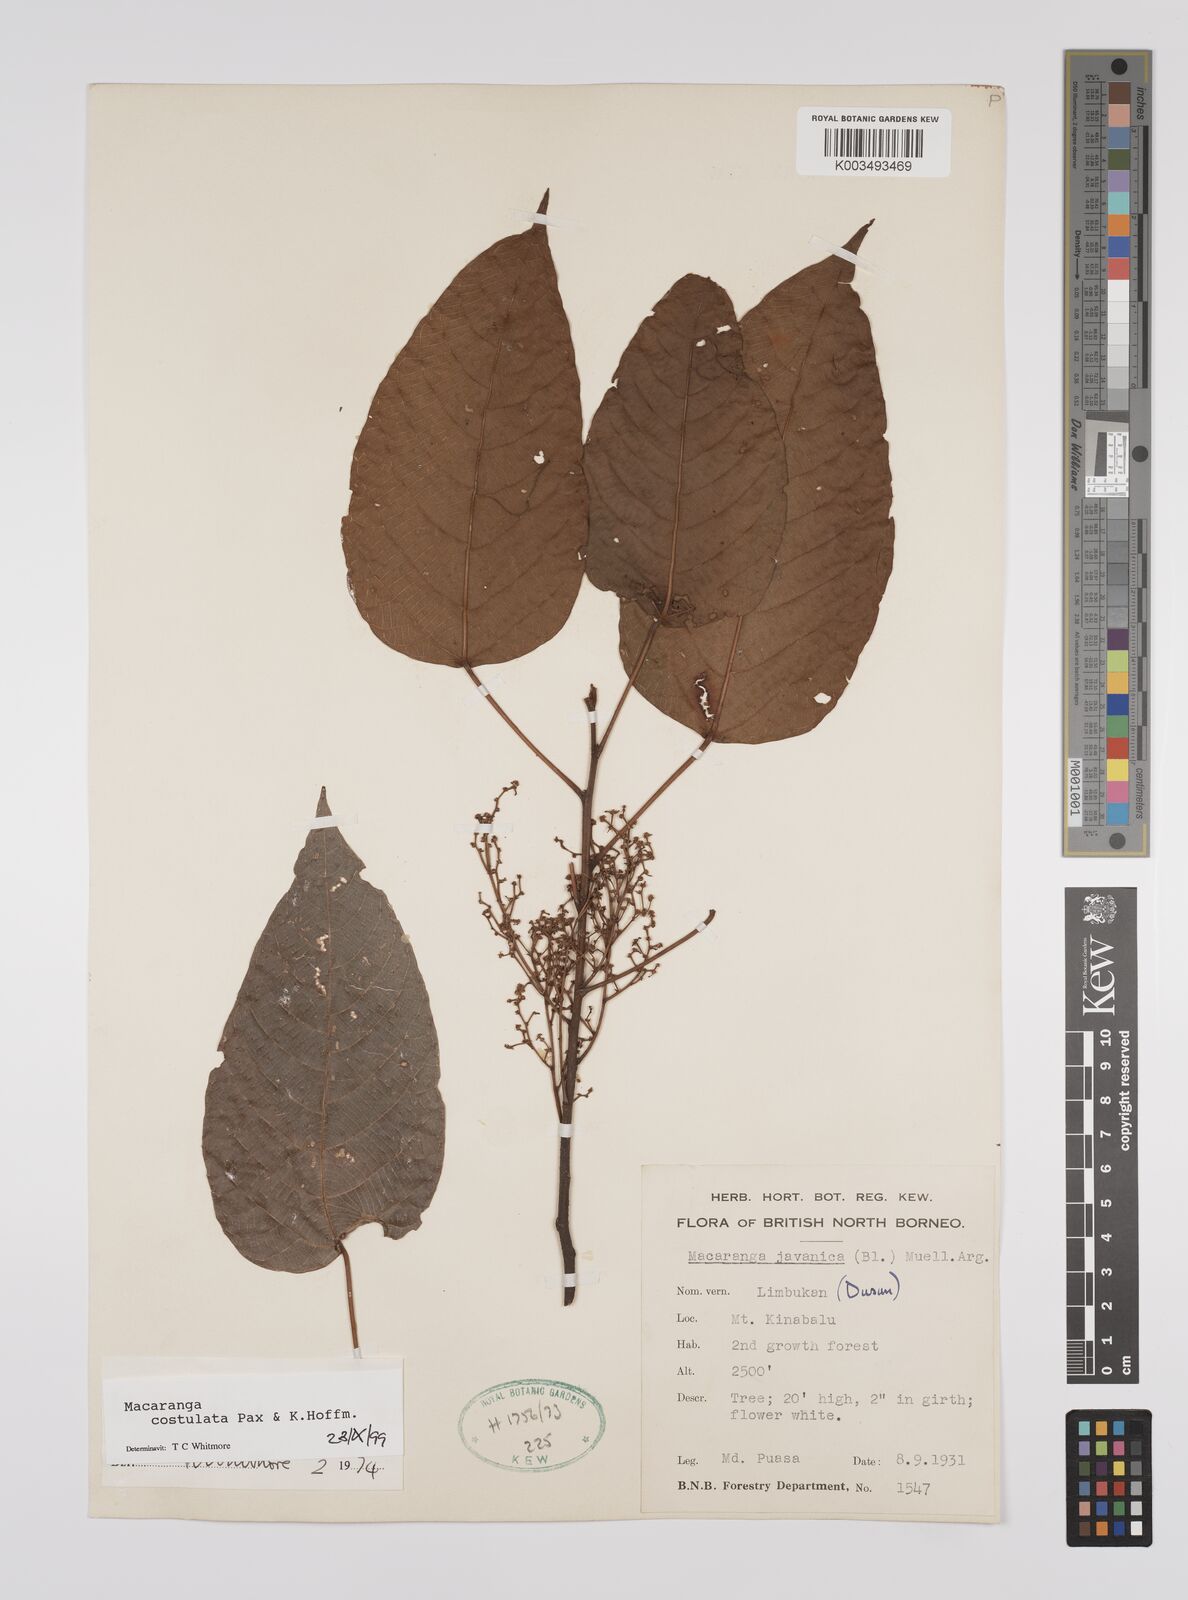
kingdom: Plantae
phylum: Tracheophyta
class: Magnoliopsida
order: Malpighiales
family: Euphorbiaceae
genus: Macaranga
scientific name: Macaranga costulata
